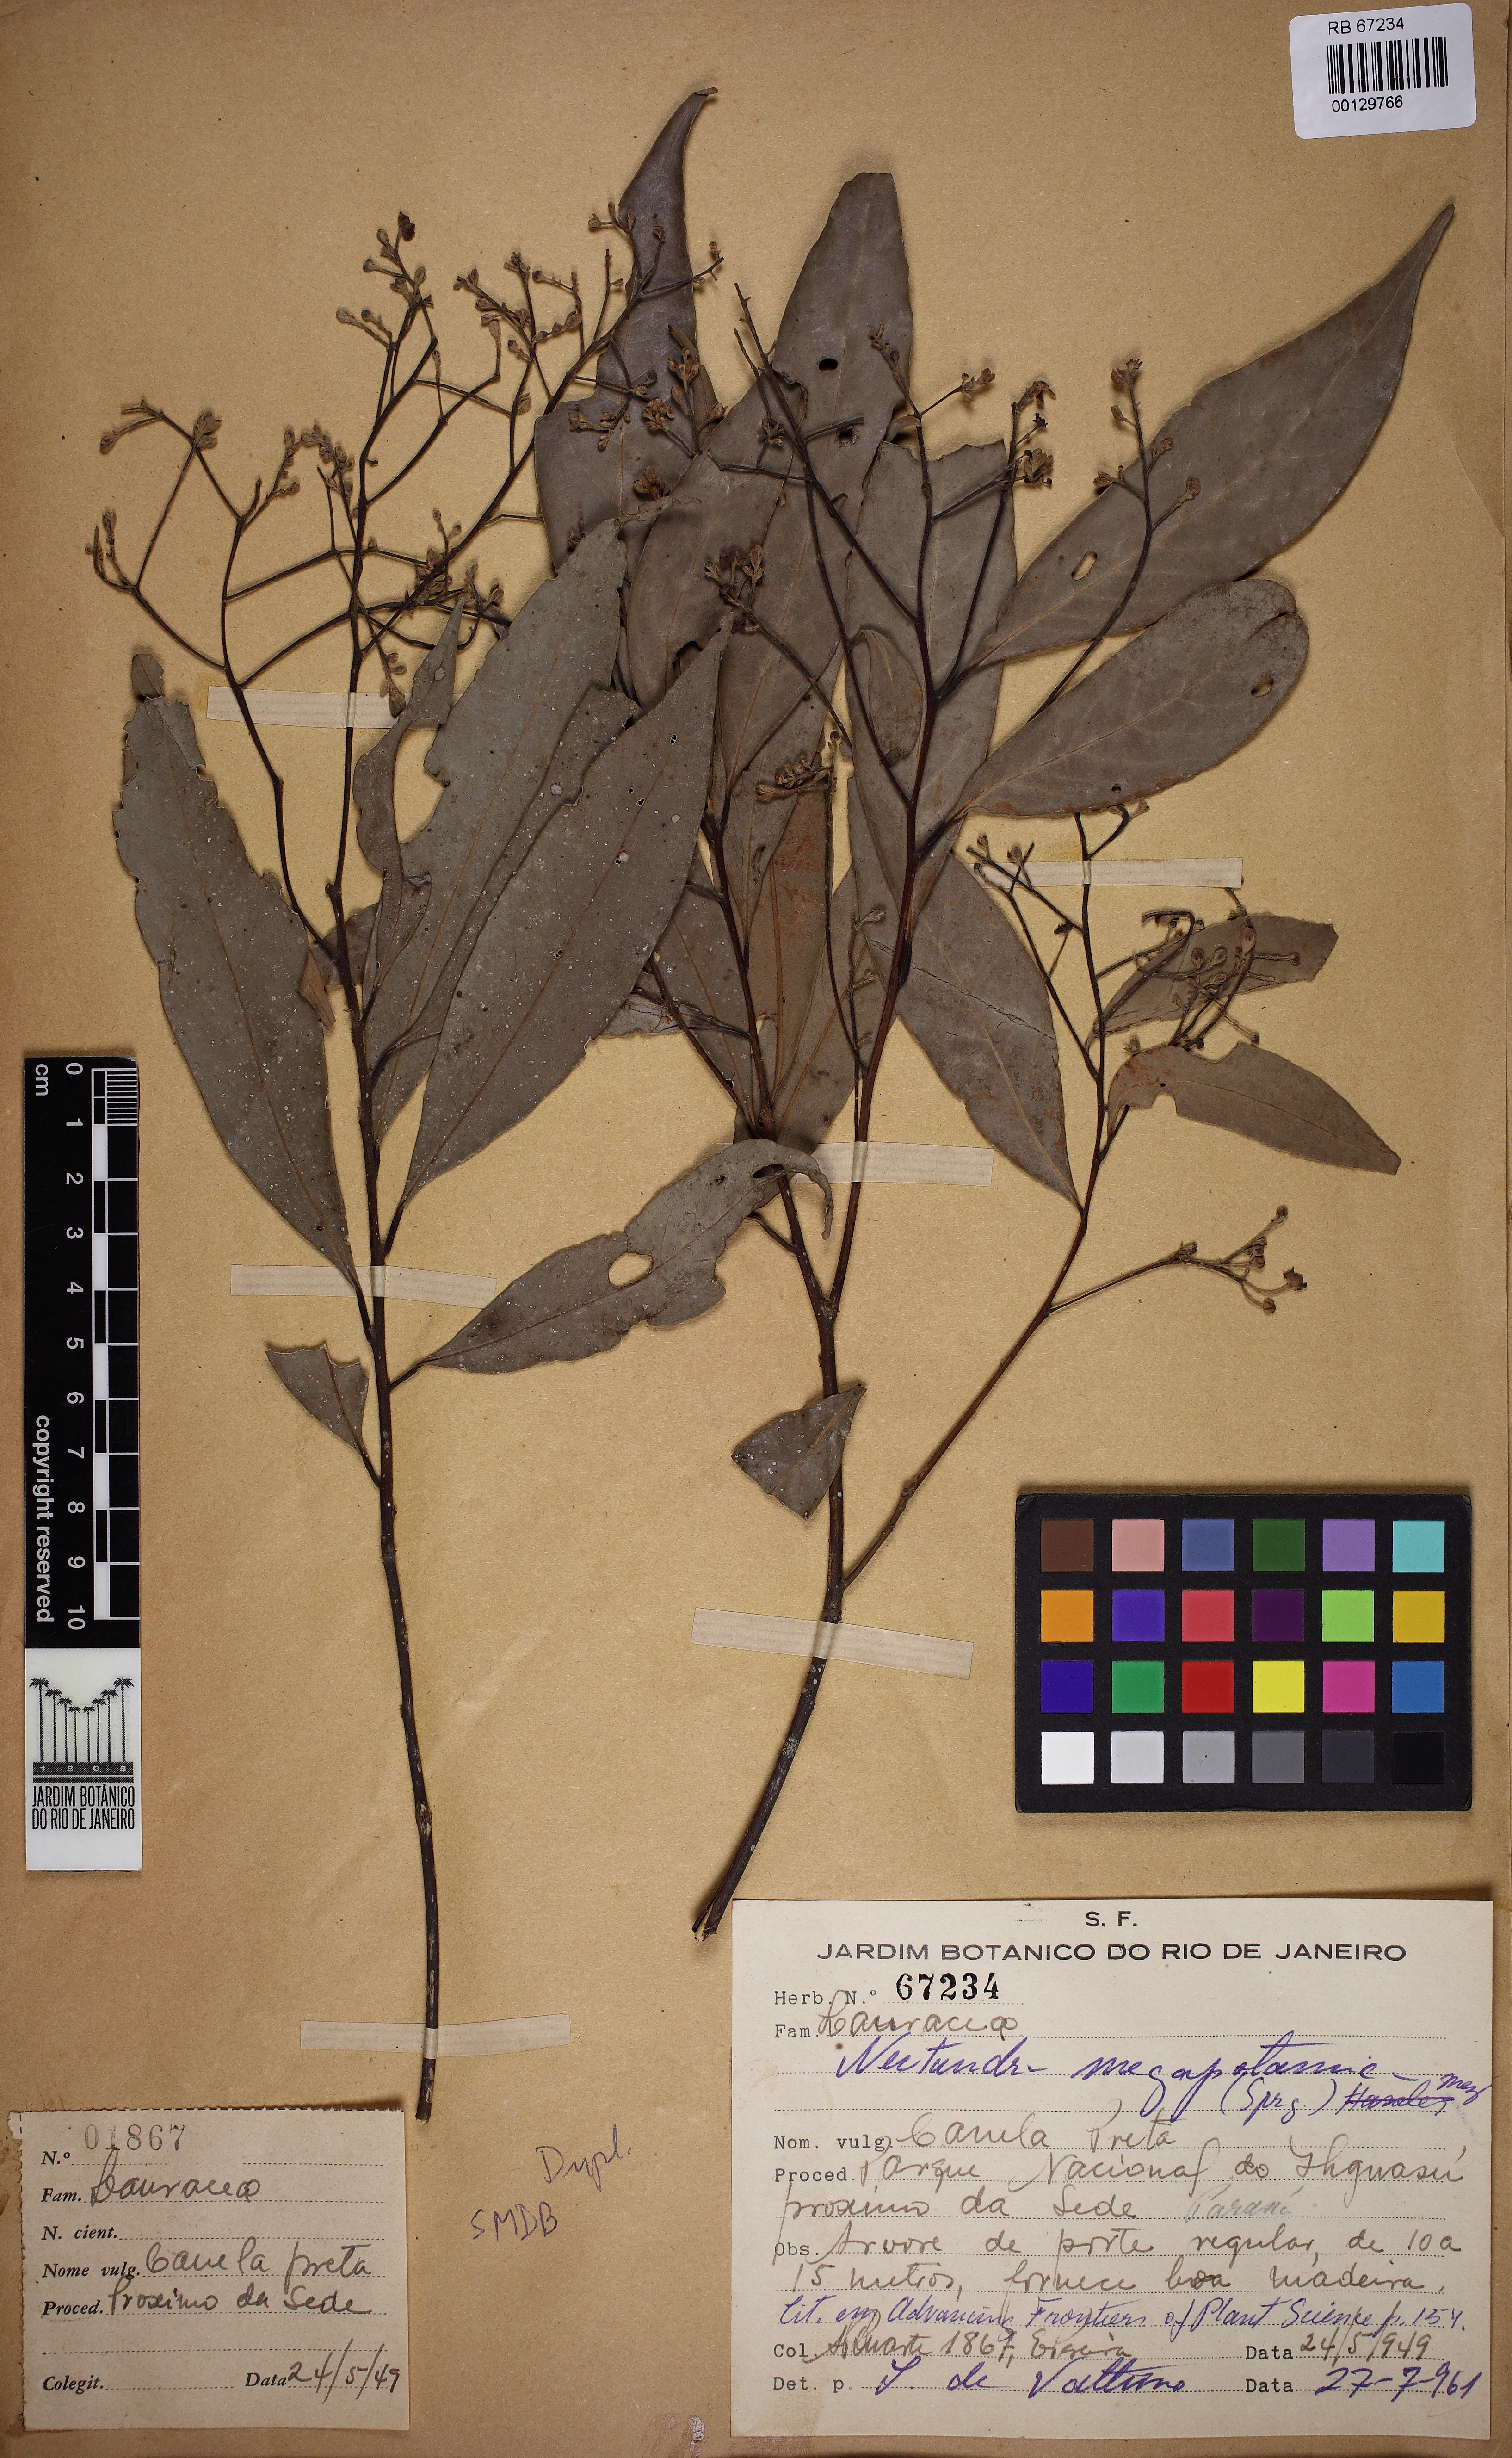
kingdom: Plantae
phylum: Tracheophyta
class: Magnoliopsida
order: Laurales
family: Lauraceae
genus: Nectandra
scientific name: Nectandra megapotamica
